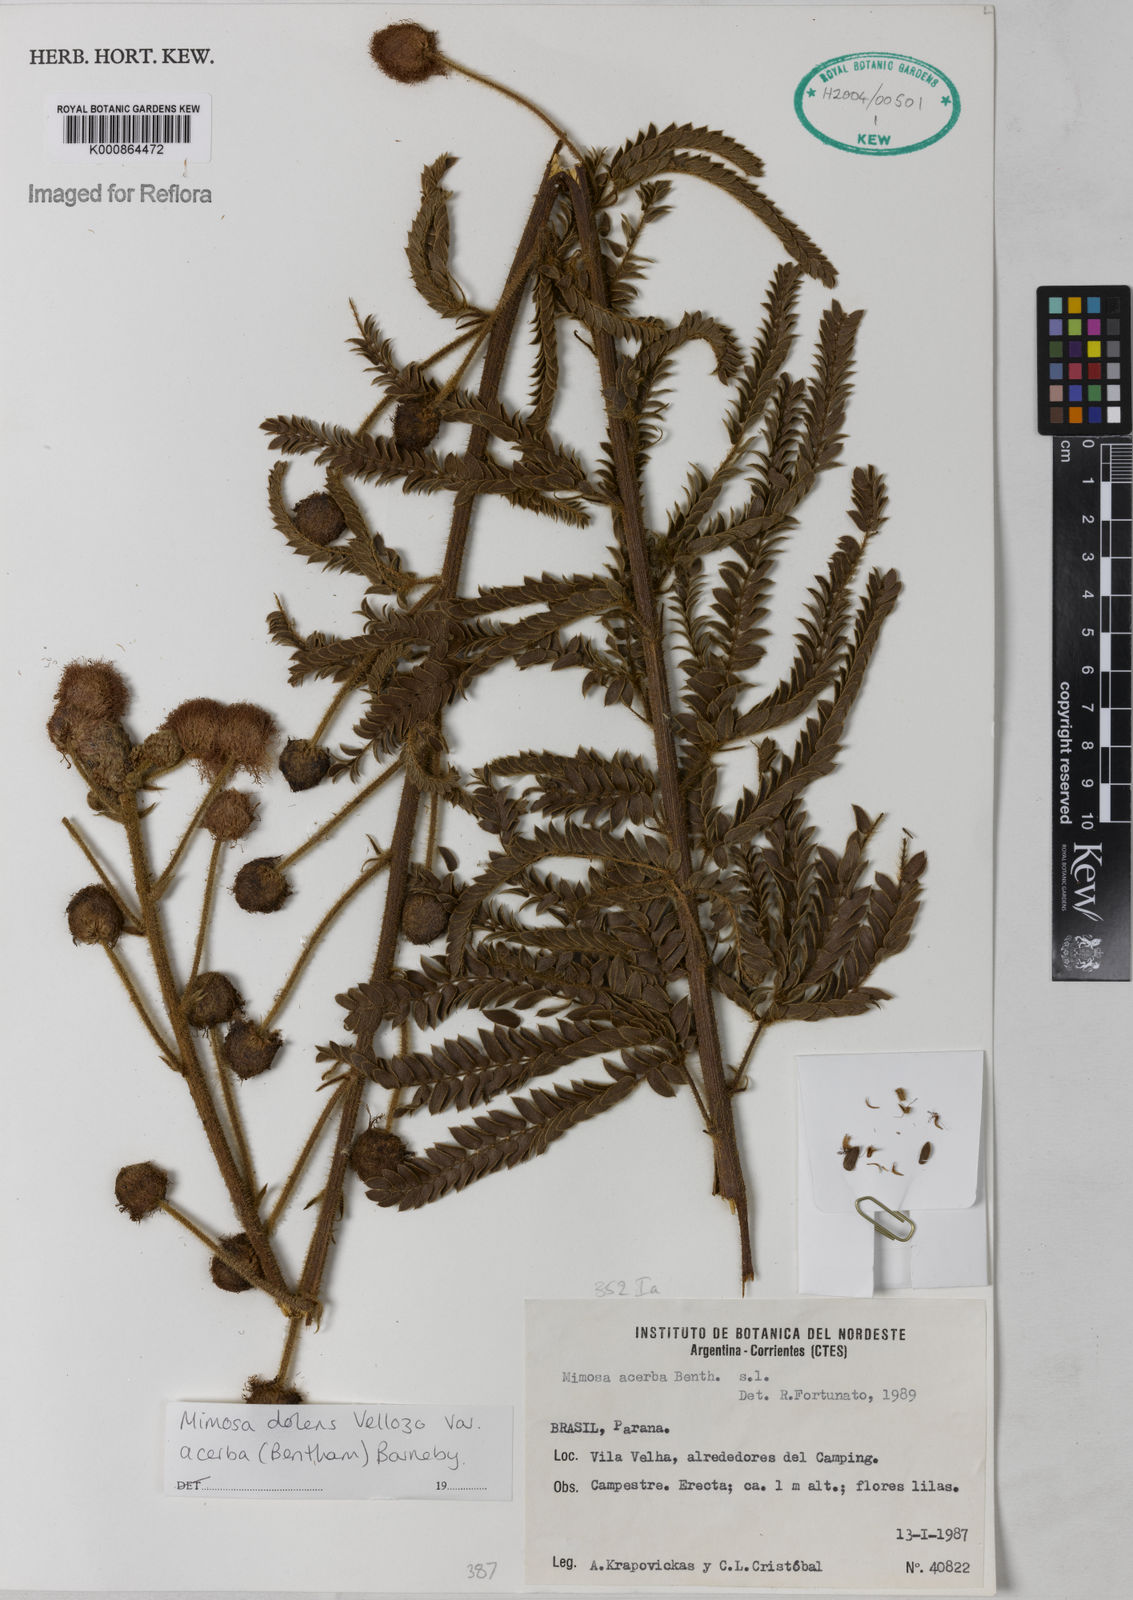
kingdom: Plantae
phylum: Tracheophyta
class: Magnoliopsida
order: Fabales
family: Fabaceae
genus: Mimosa
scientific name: Mimosa dolens
